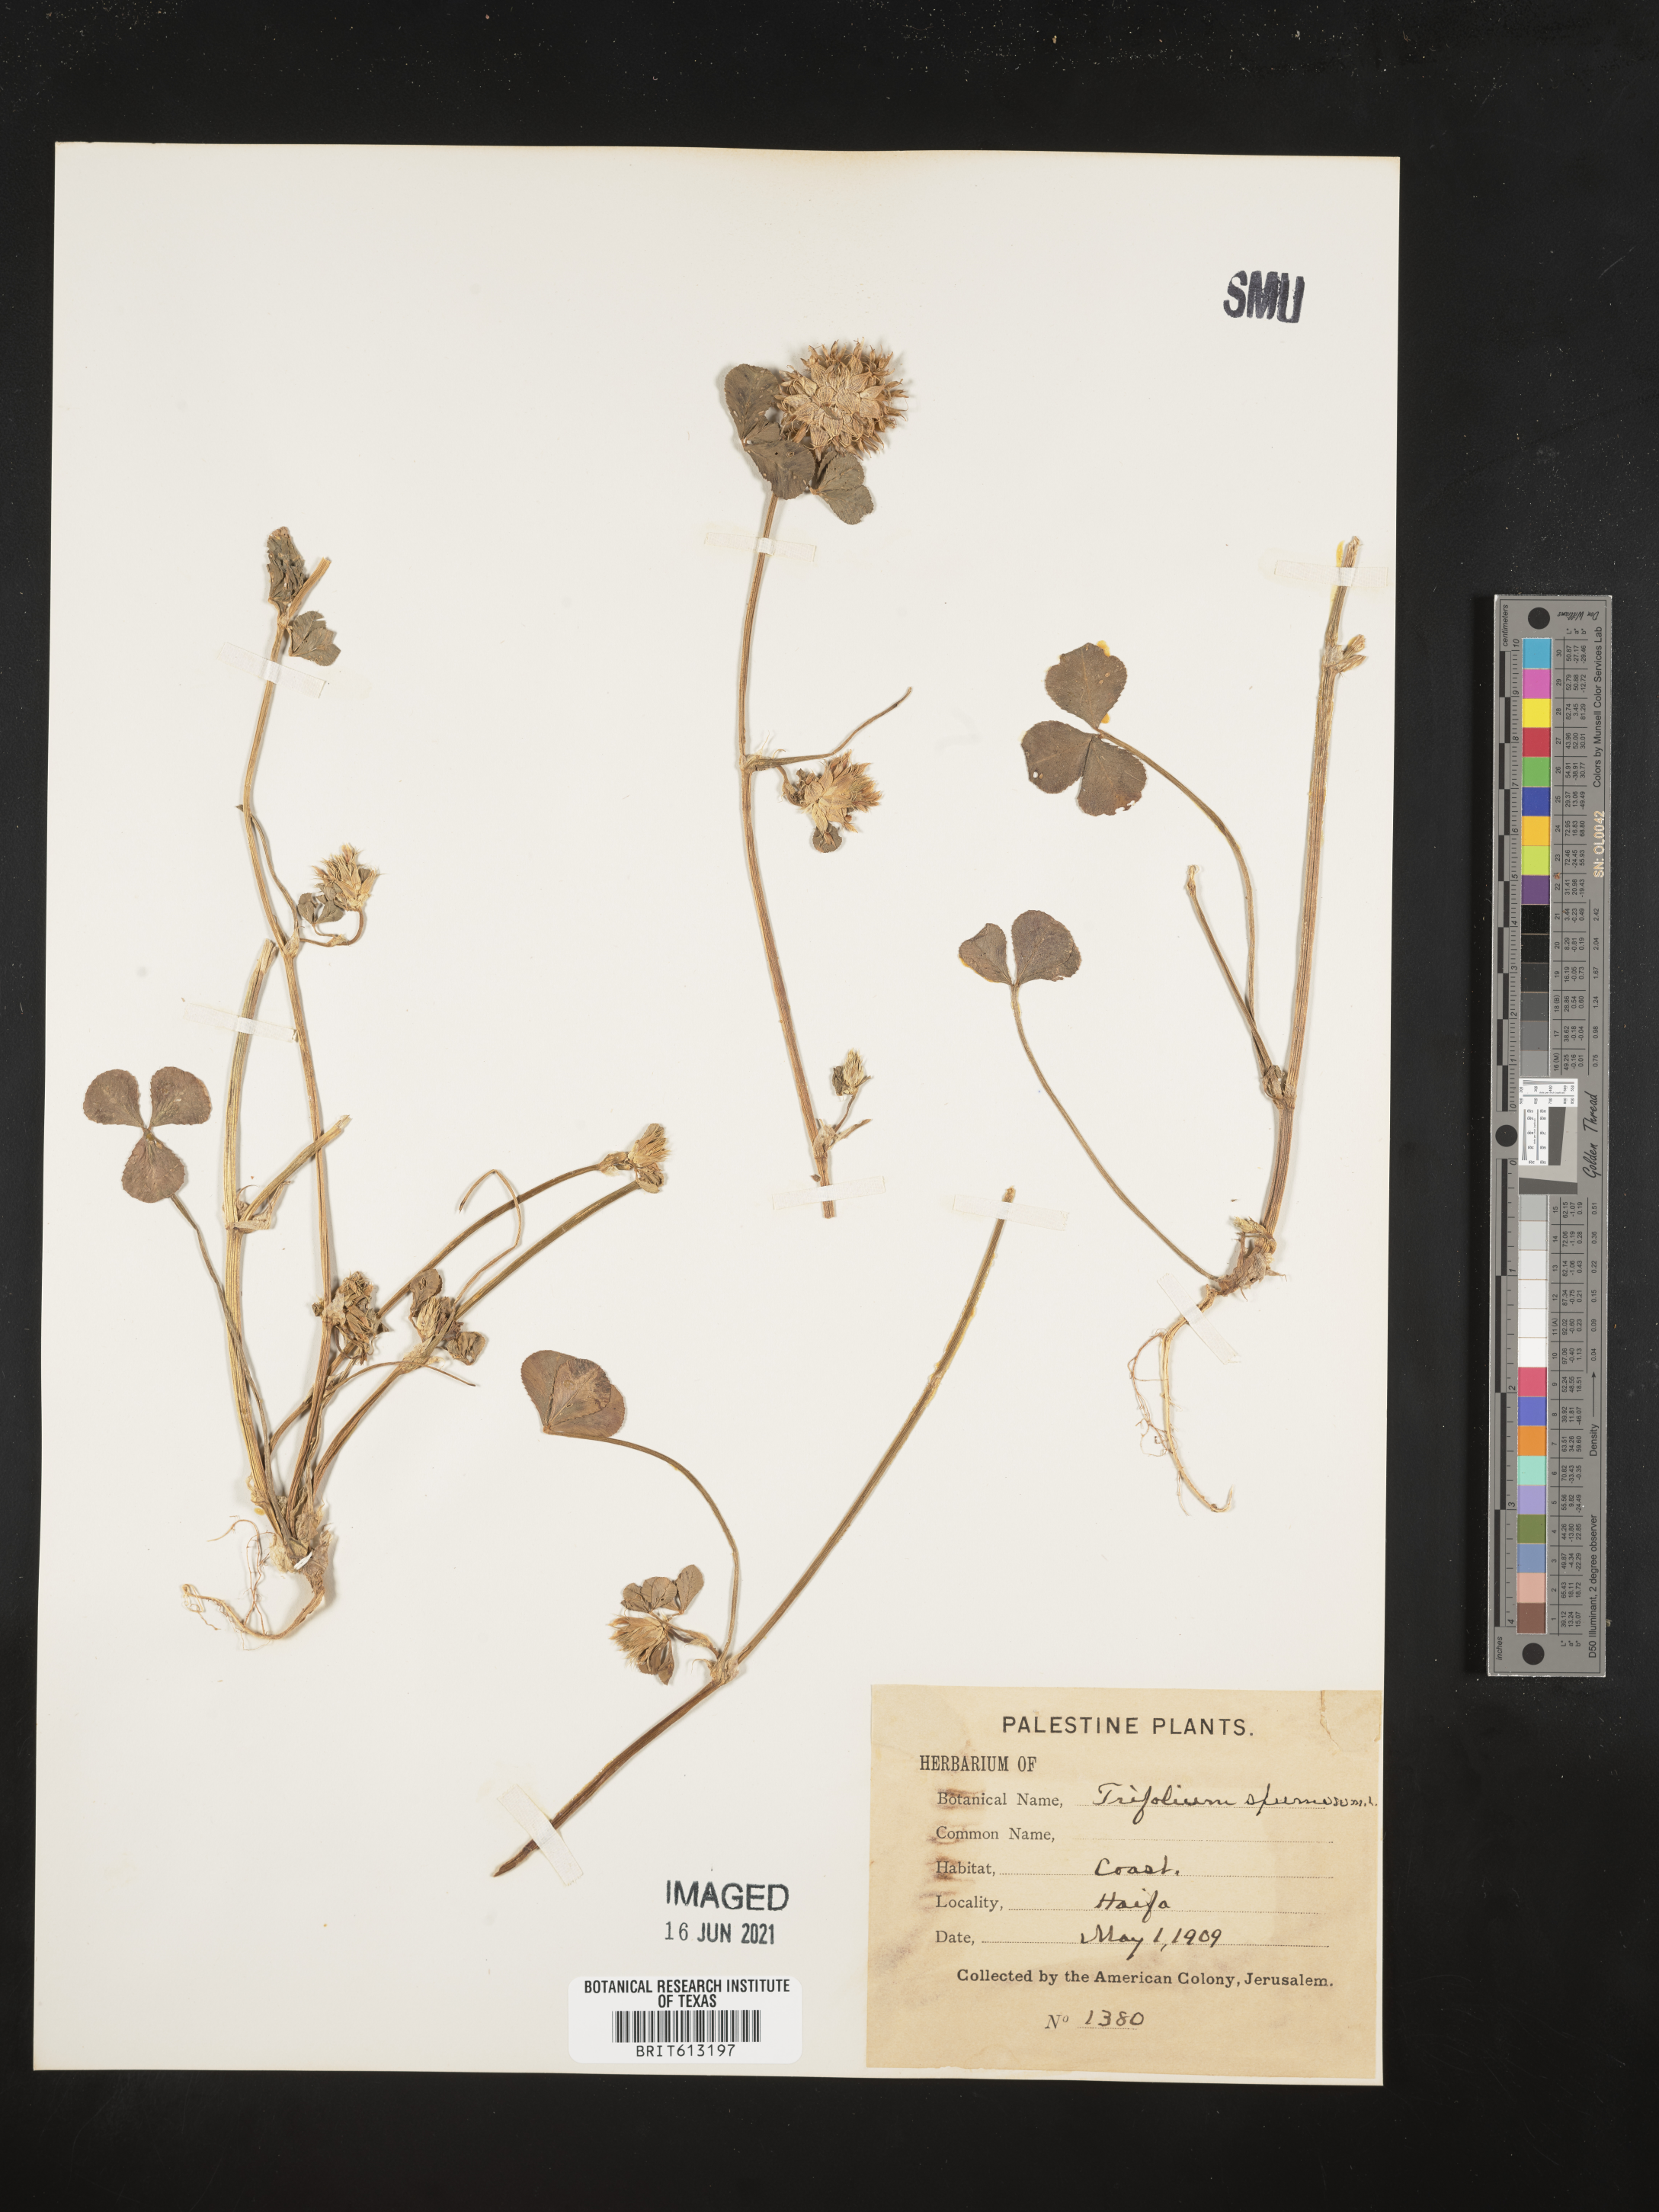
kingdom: Plantae
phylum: Tracheophyta
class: Magnoliopsida
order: Fabales
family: Fabaceae
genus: Trifolium
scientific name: Trifolium spumosum
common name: Mediterranean clover
